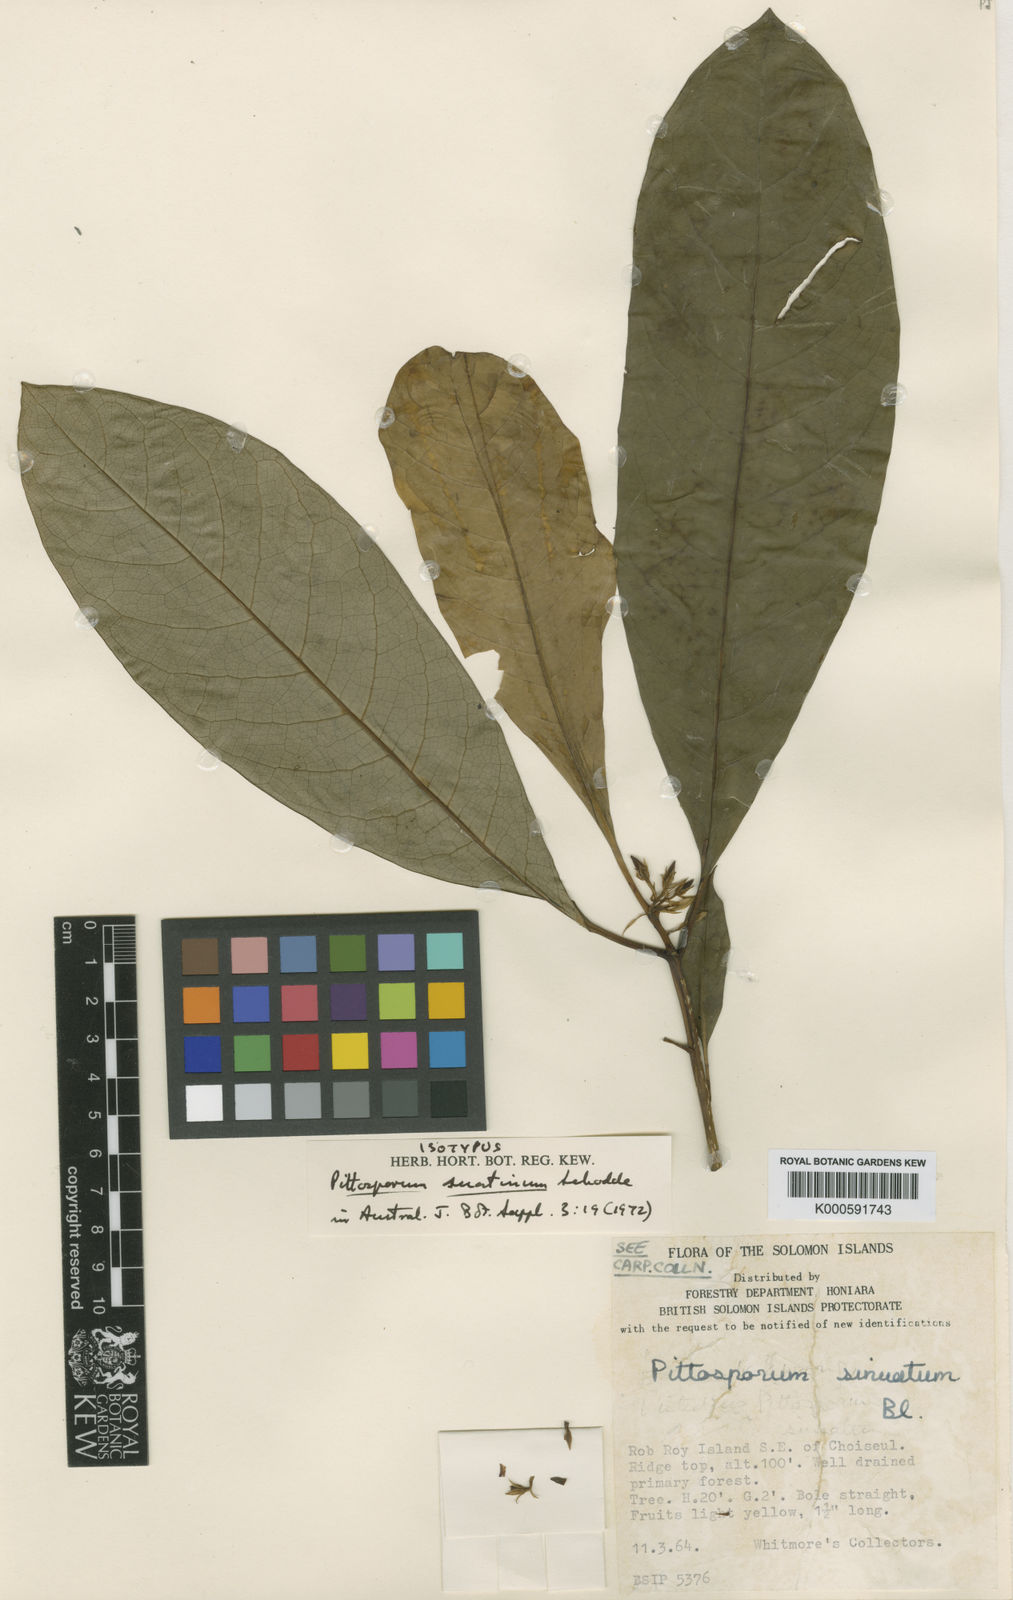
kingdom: Plantae
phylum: Tracheophyta
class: Magnoliopsida
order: Apiales
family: Pittosporaceae
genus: Pittosporum
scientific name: Pittosporum suatinum
